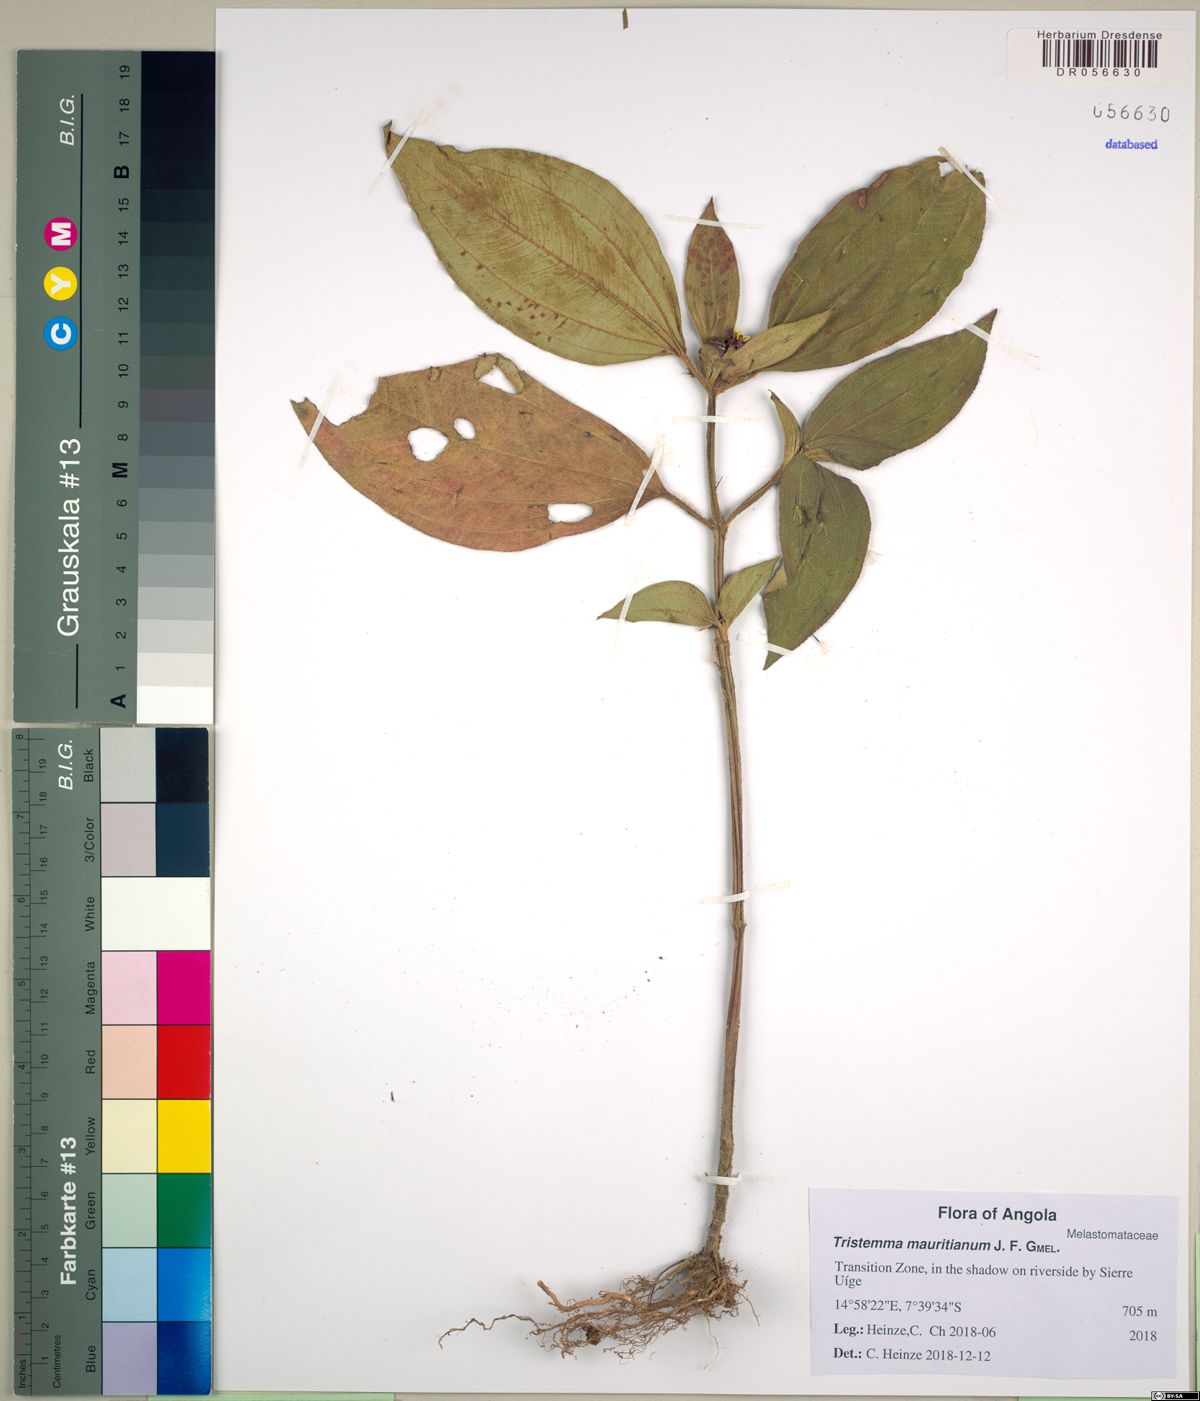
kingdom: Plantae
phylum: Tracheophyta
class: Magnoliopsida
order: Myrtales
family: Melastomataceae
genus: Tristemma
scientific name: Tristemma mauritianum
